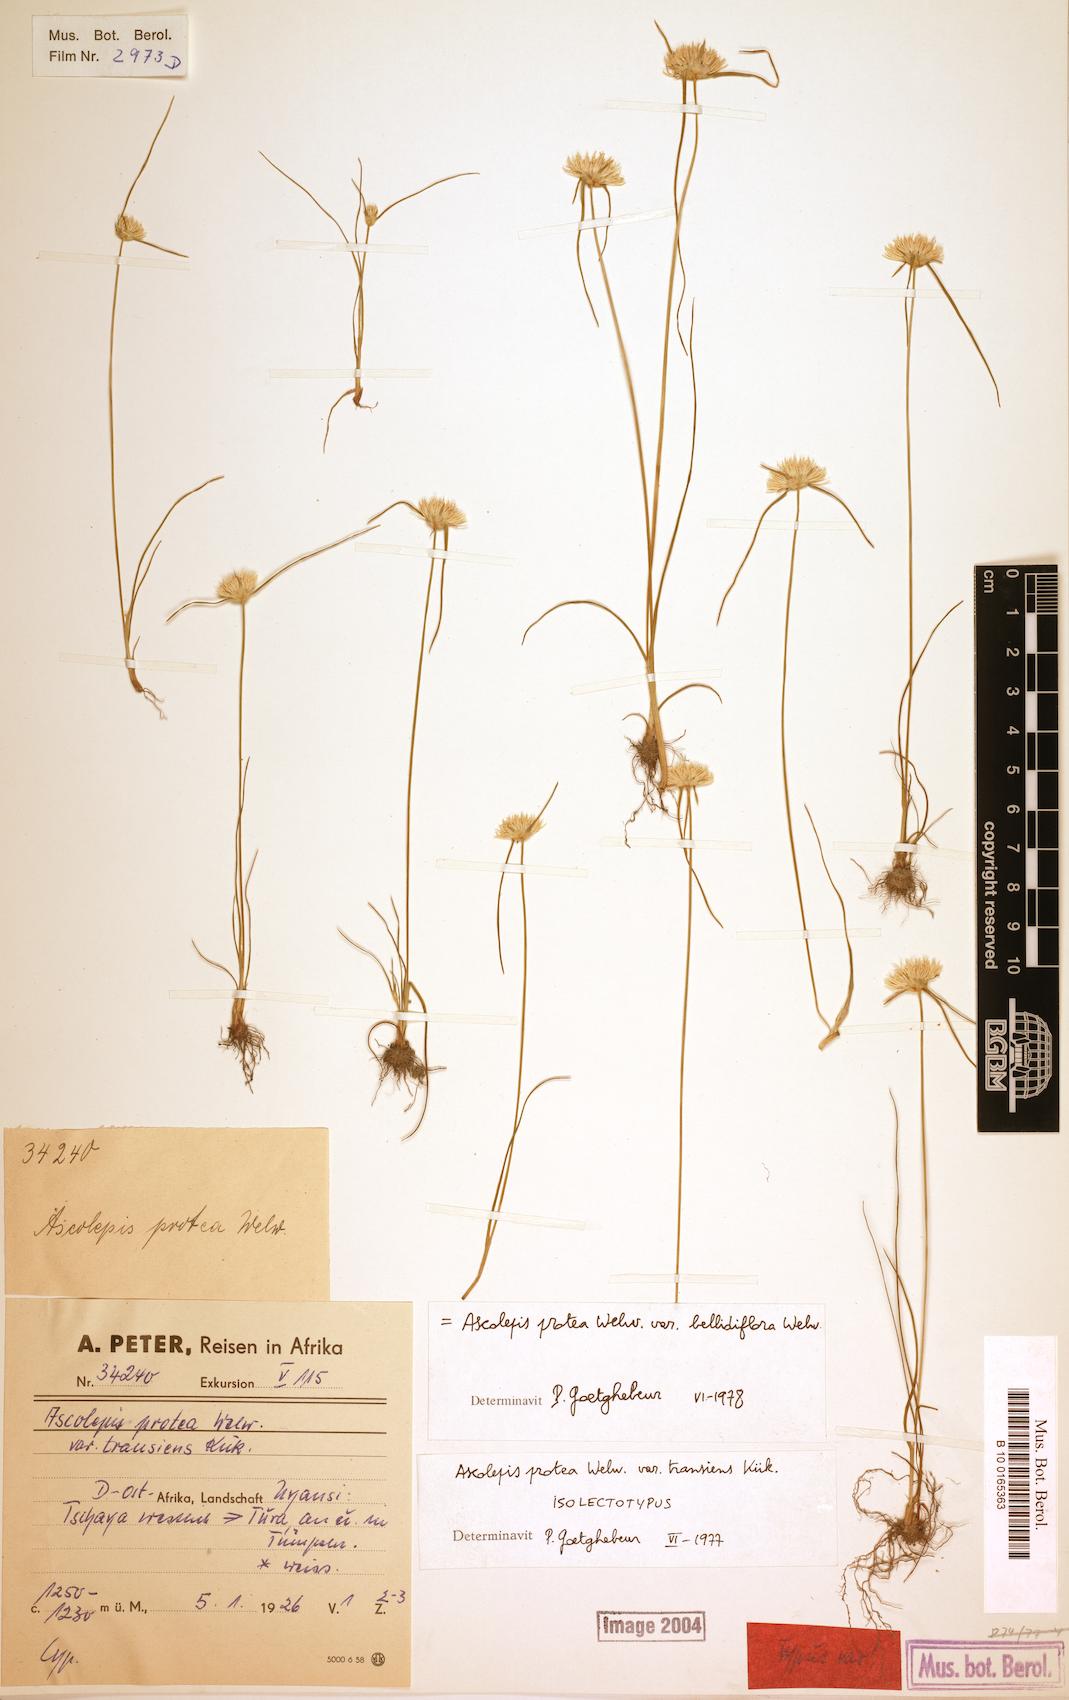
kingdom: Plantae
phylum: Tracheophyta
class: Liliopsida
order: Poales
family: Cyperaceae
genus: Cyperus
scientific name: Cyperus proteus
